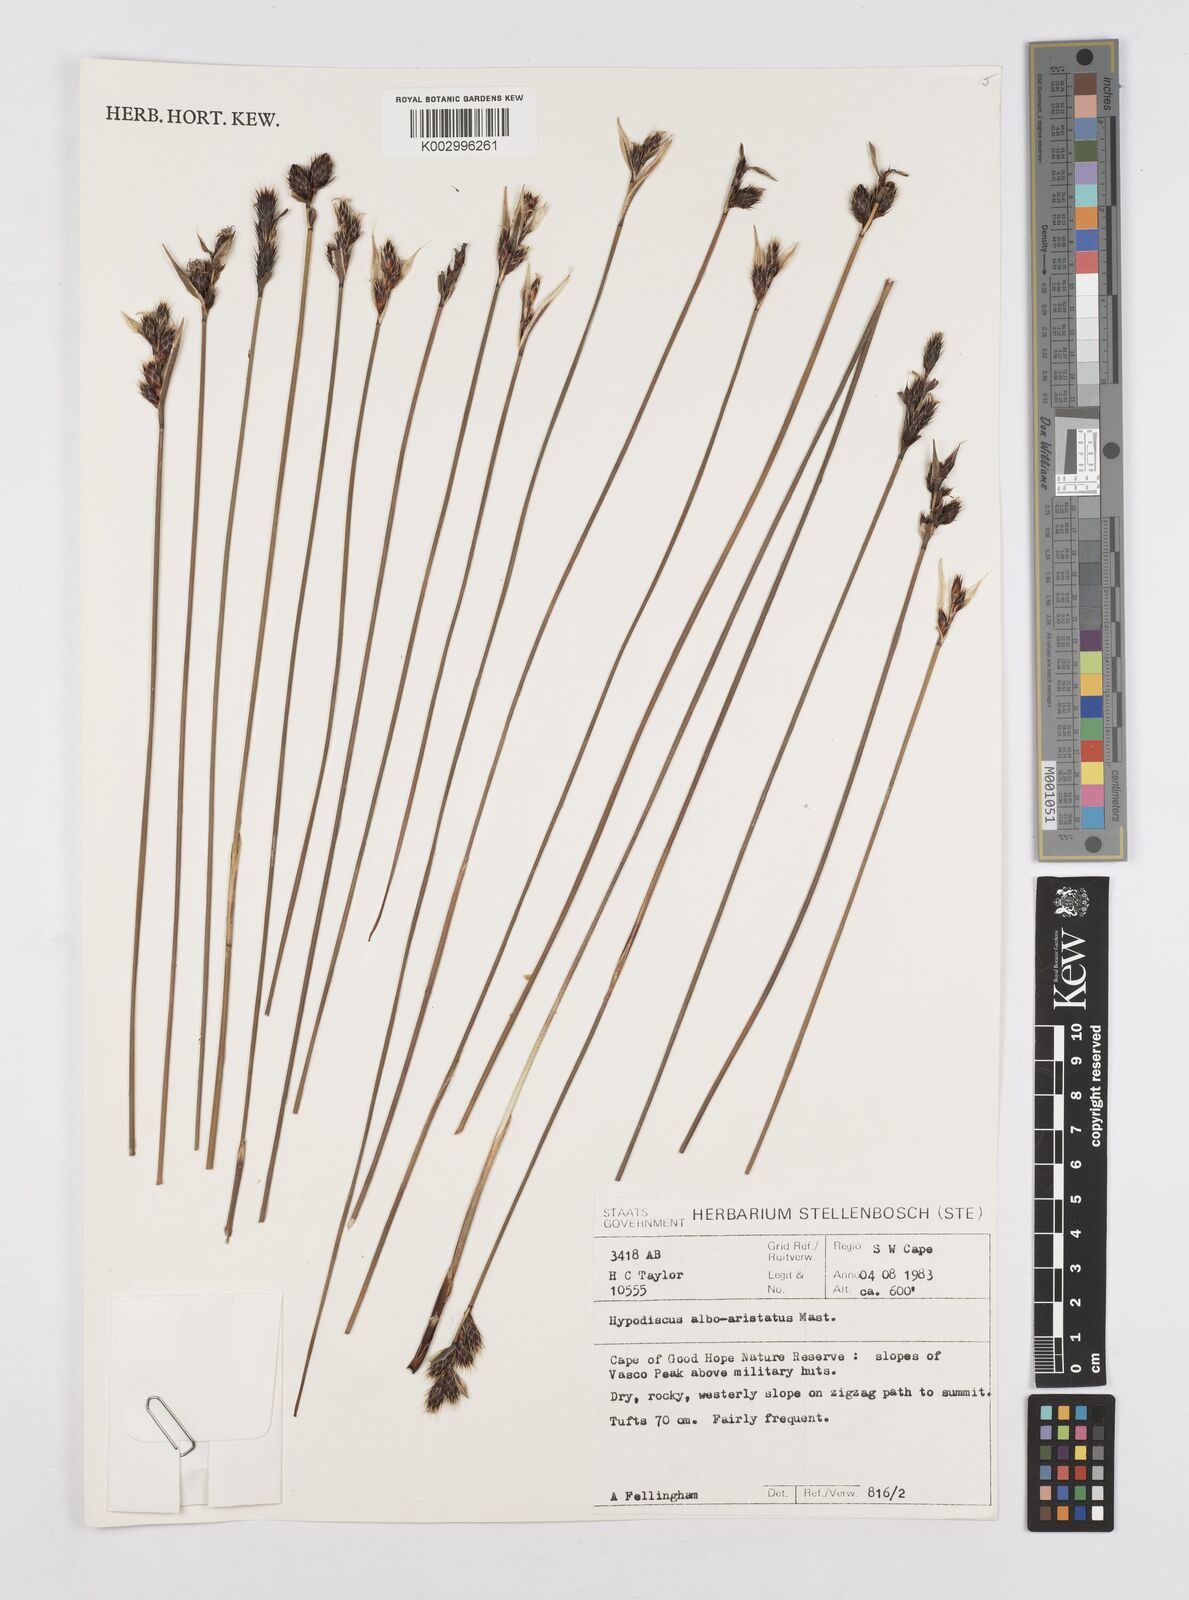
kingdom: Plantae
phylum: Tracheophyta
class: Liliopsida
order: Poales
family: Restionaceae
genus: Hypodiscus
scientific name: Hypodiscus alboaristatus
